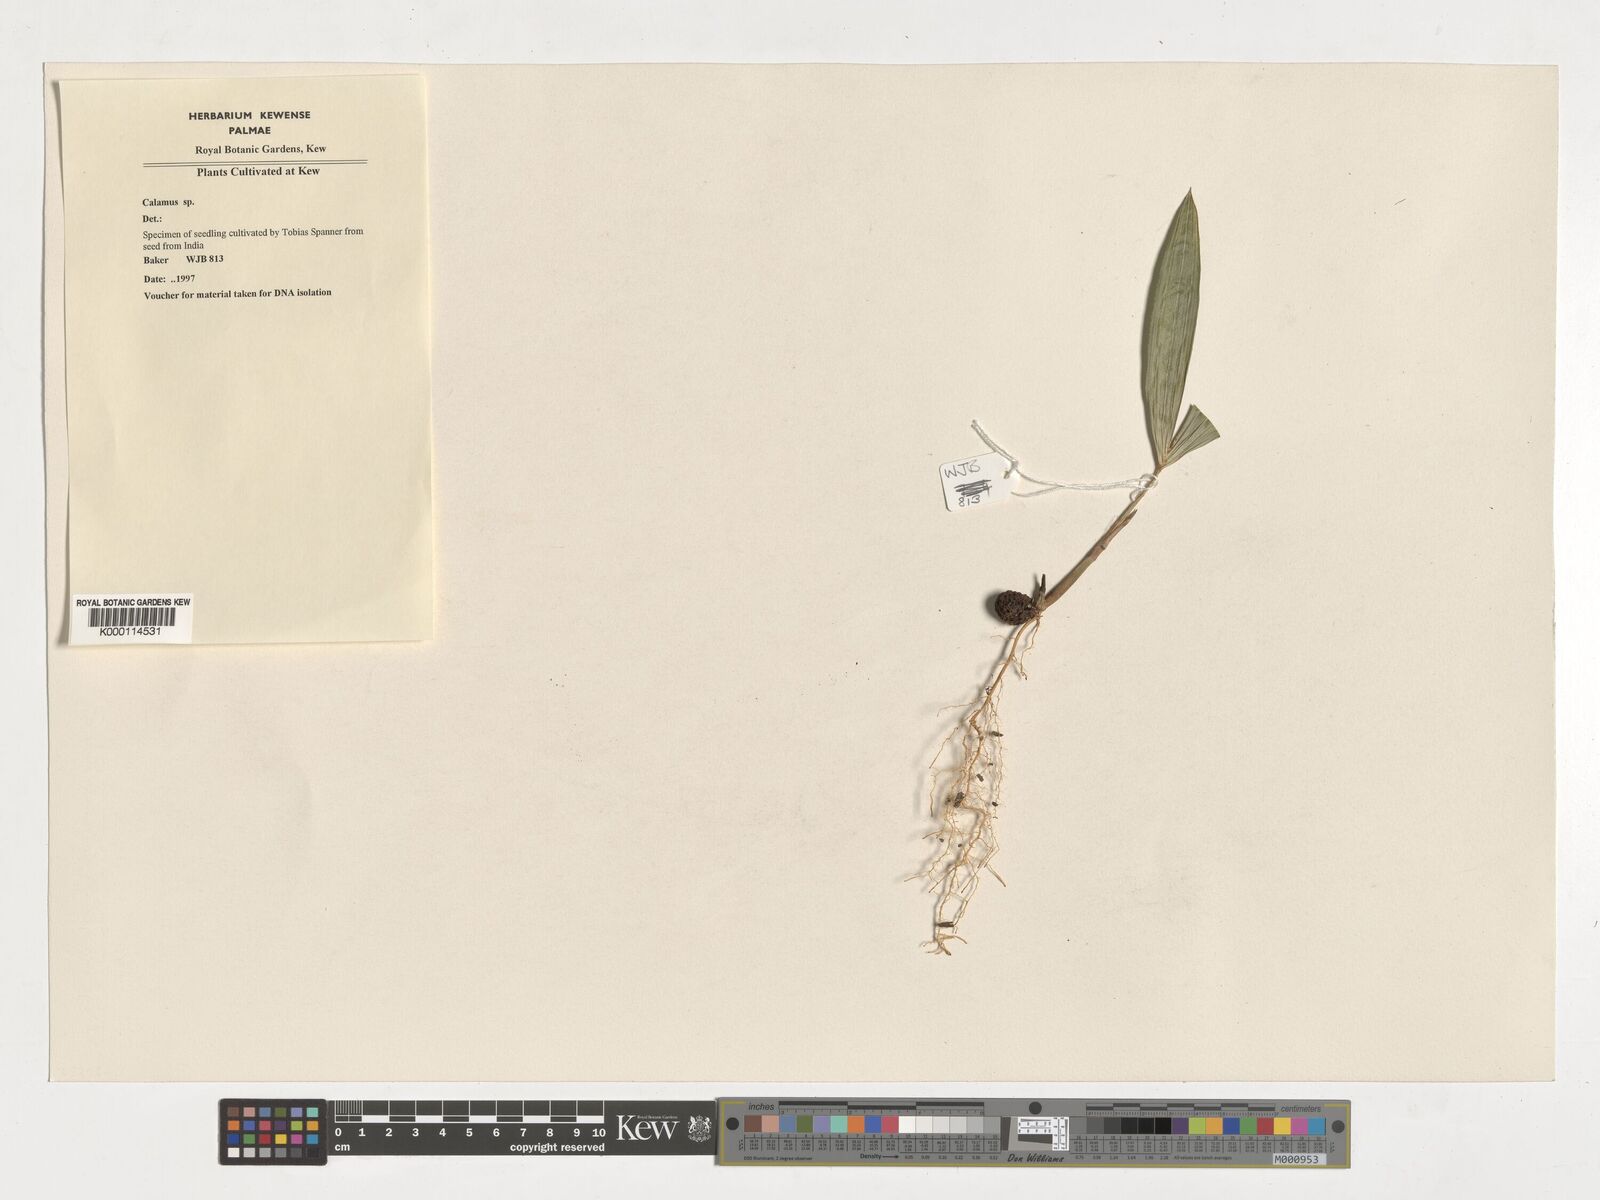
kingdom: Plantae
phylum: Tracheophyta
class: Liliopsida
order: Arecales
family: Arecaceae
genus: Calamus
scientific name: Calamus
